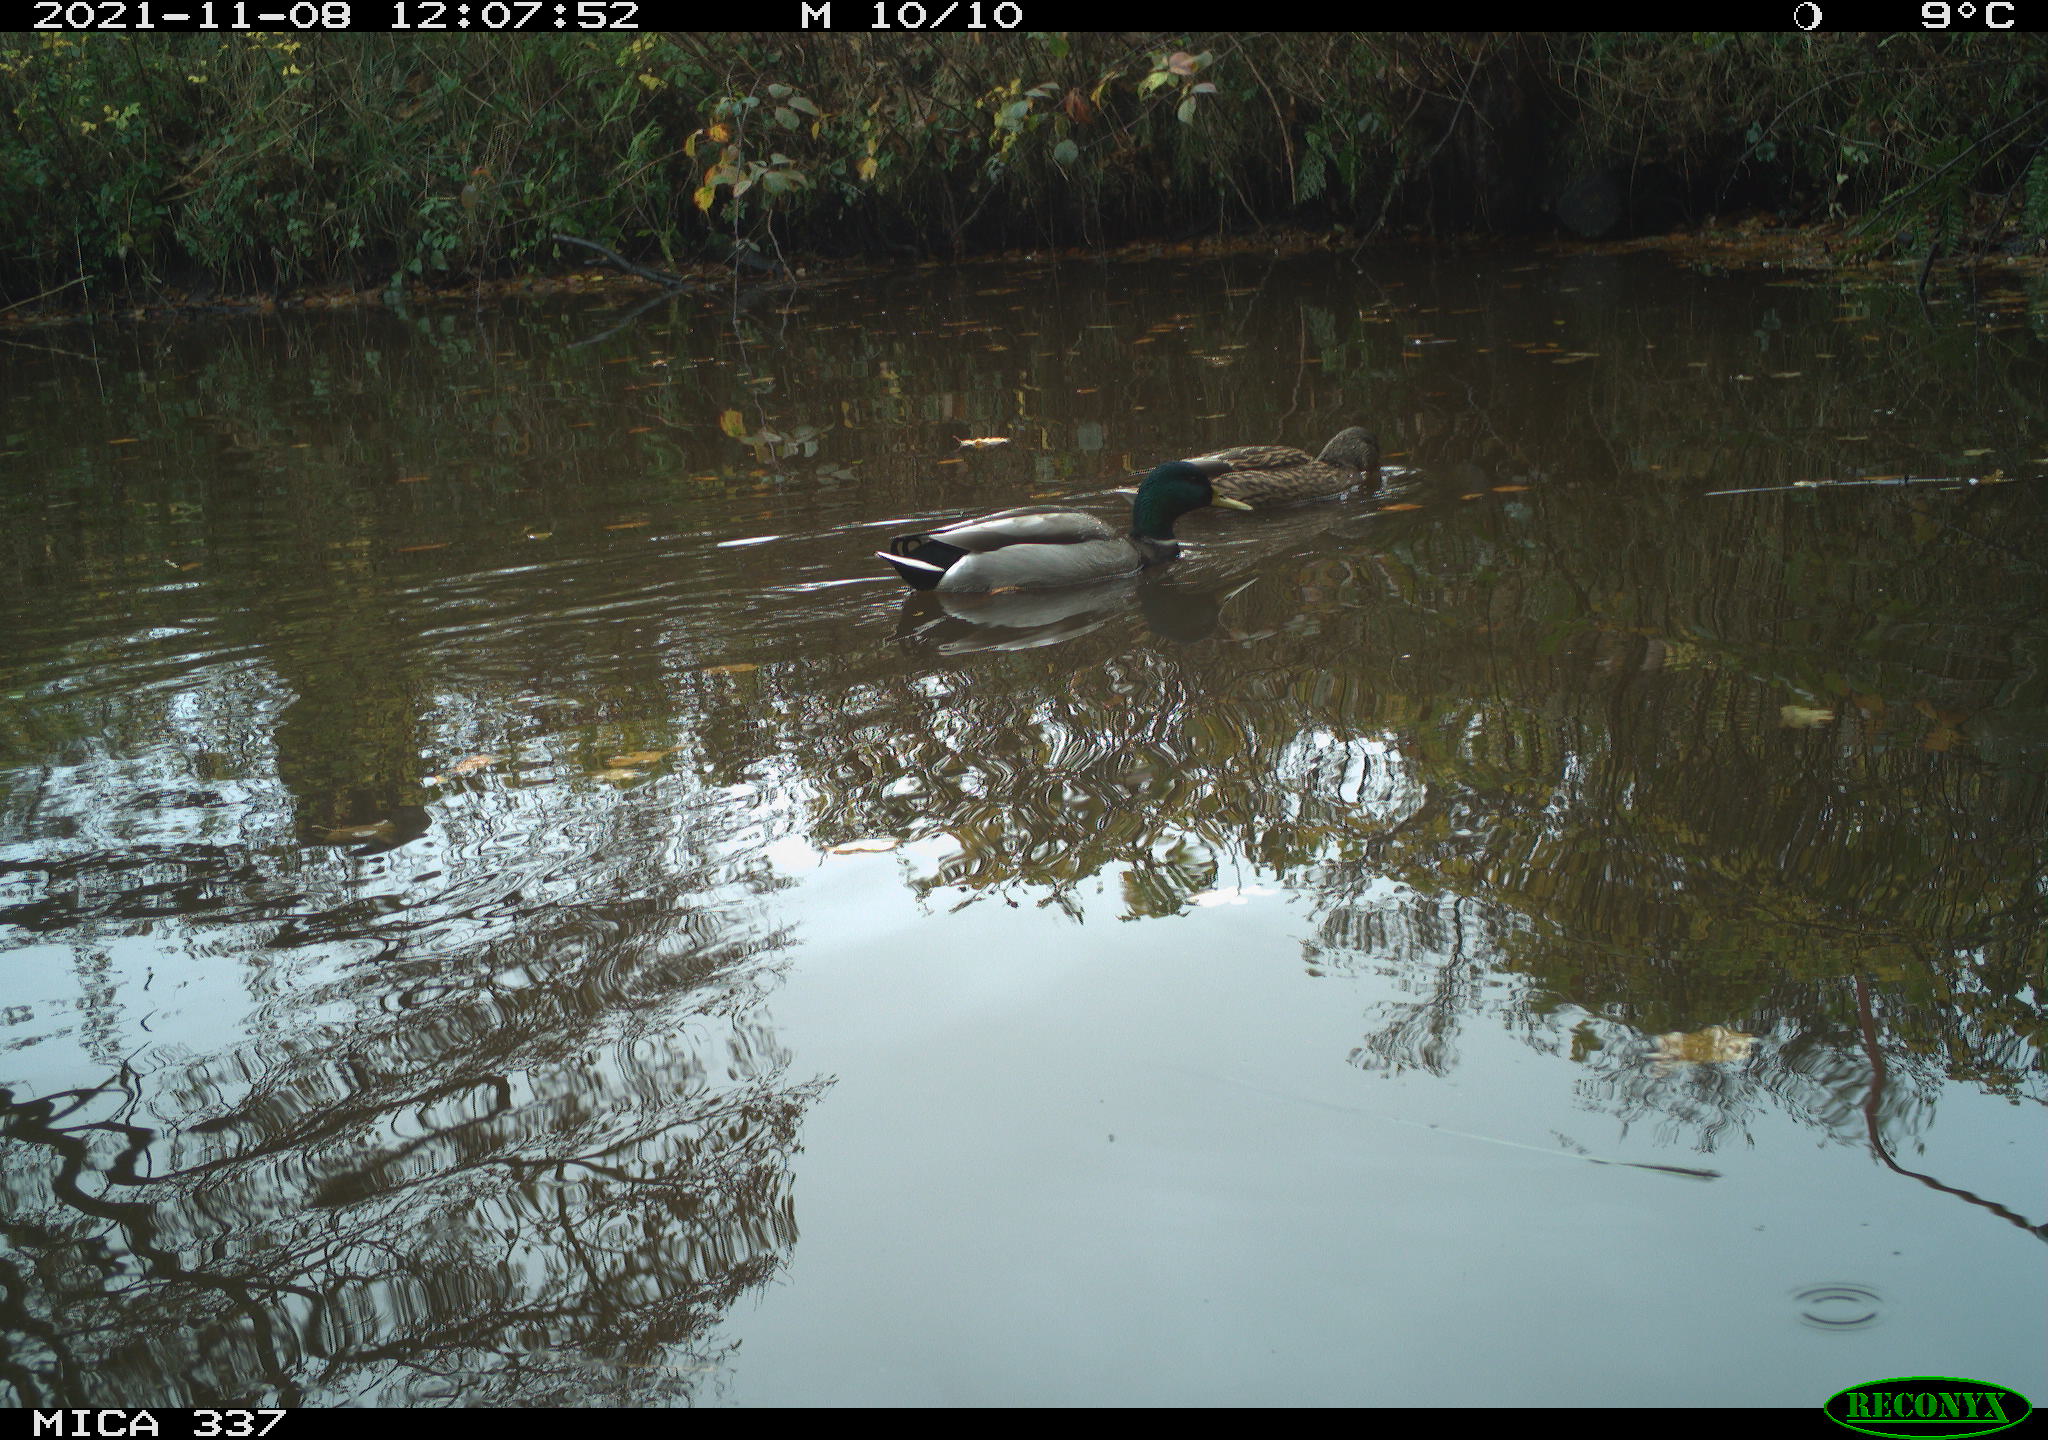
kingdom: Animalia
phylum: Chordata
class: Aves
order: Anseriformes
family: Anatidae
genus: Anas
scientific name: Anas platyrhynchos
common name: Mallard
